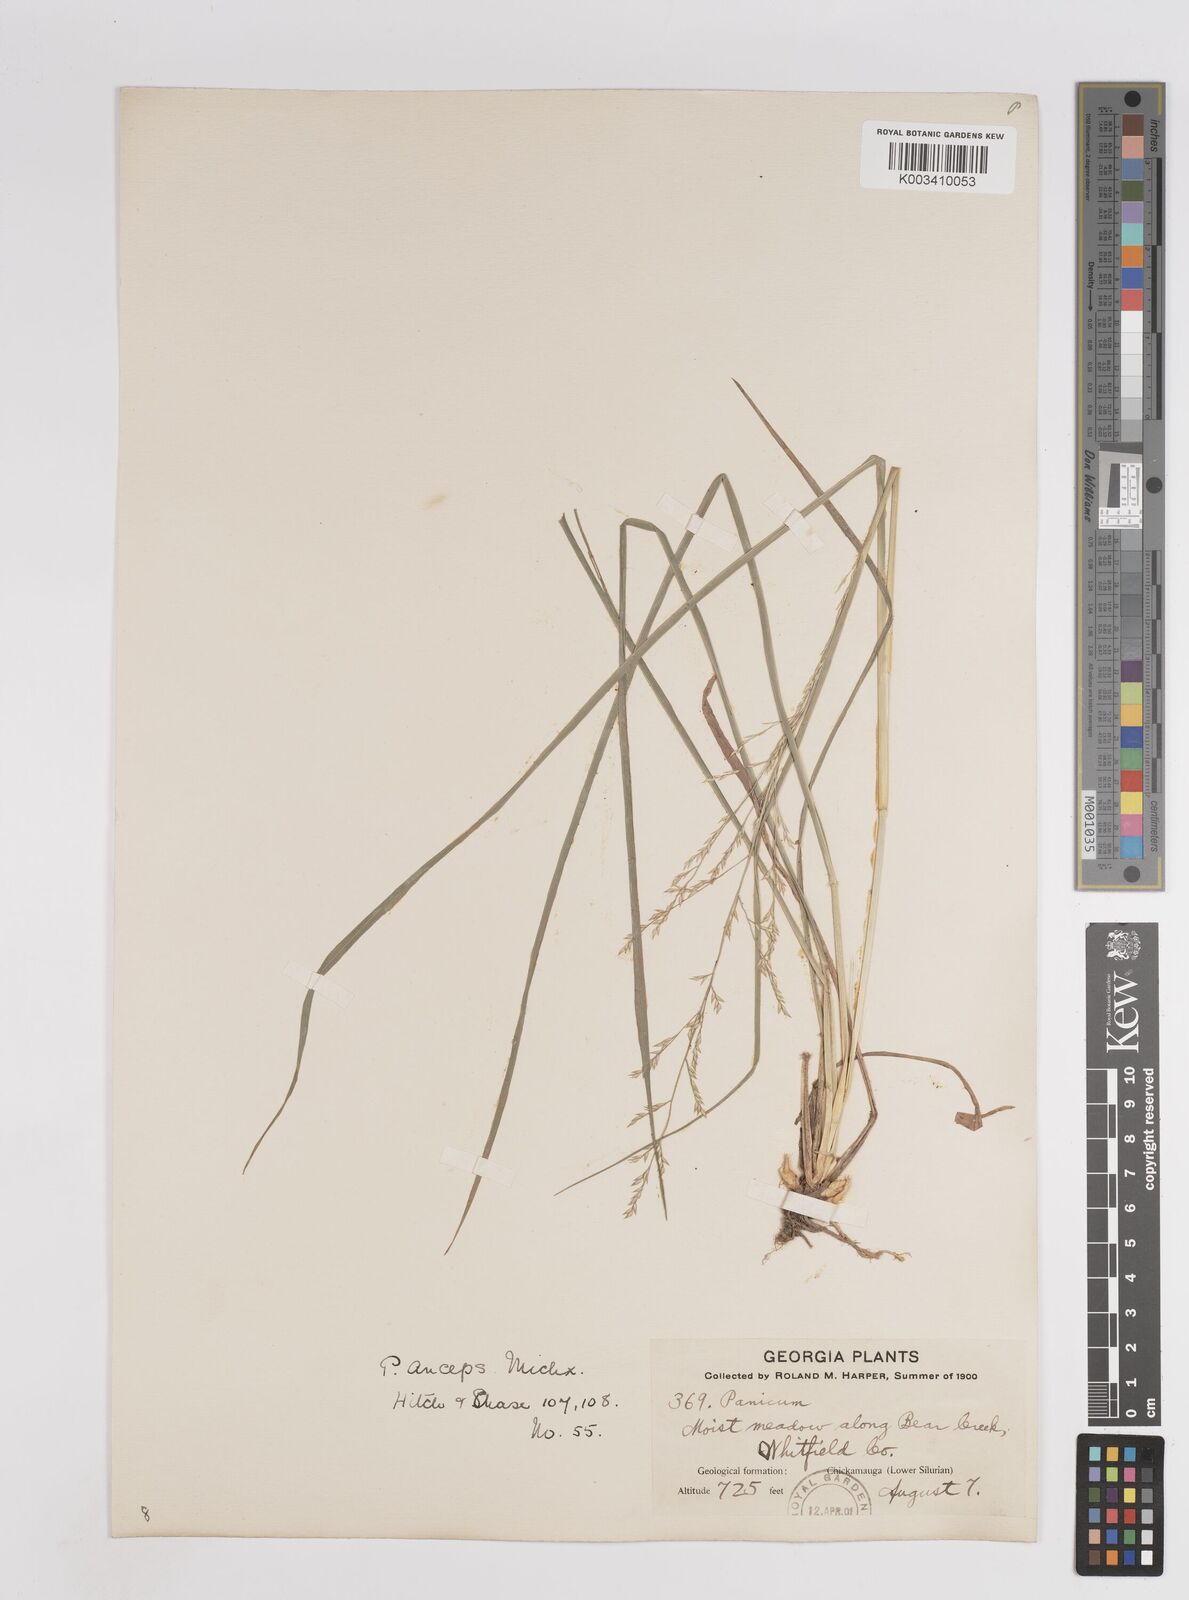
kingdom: Plantae
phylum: Tracheophyta
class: Liliopsida
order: Poales
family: Poaceae
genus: Coleataenia
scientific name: Coleataenia anceps
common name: Beaked panic grass
